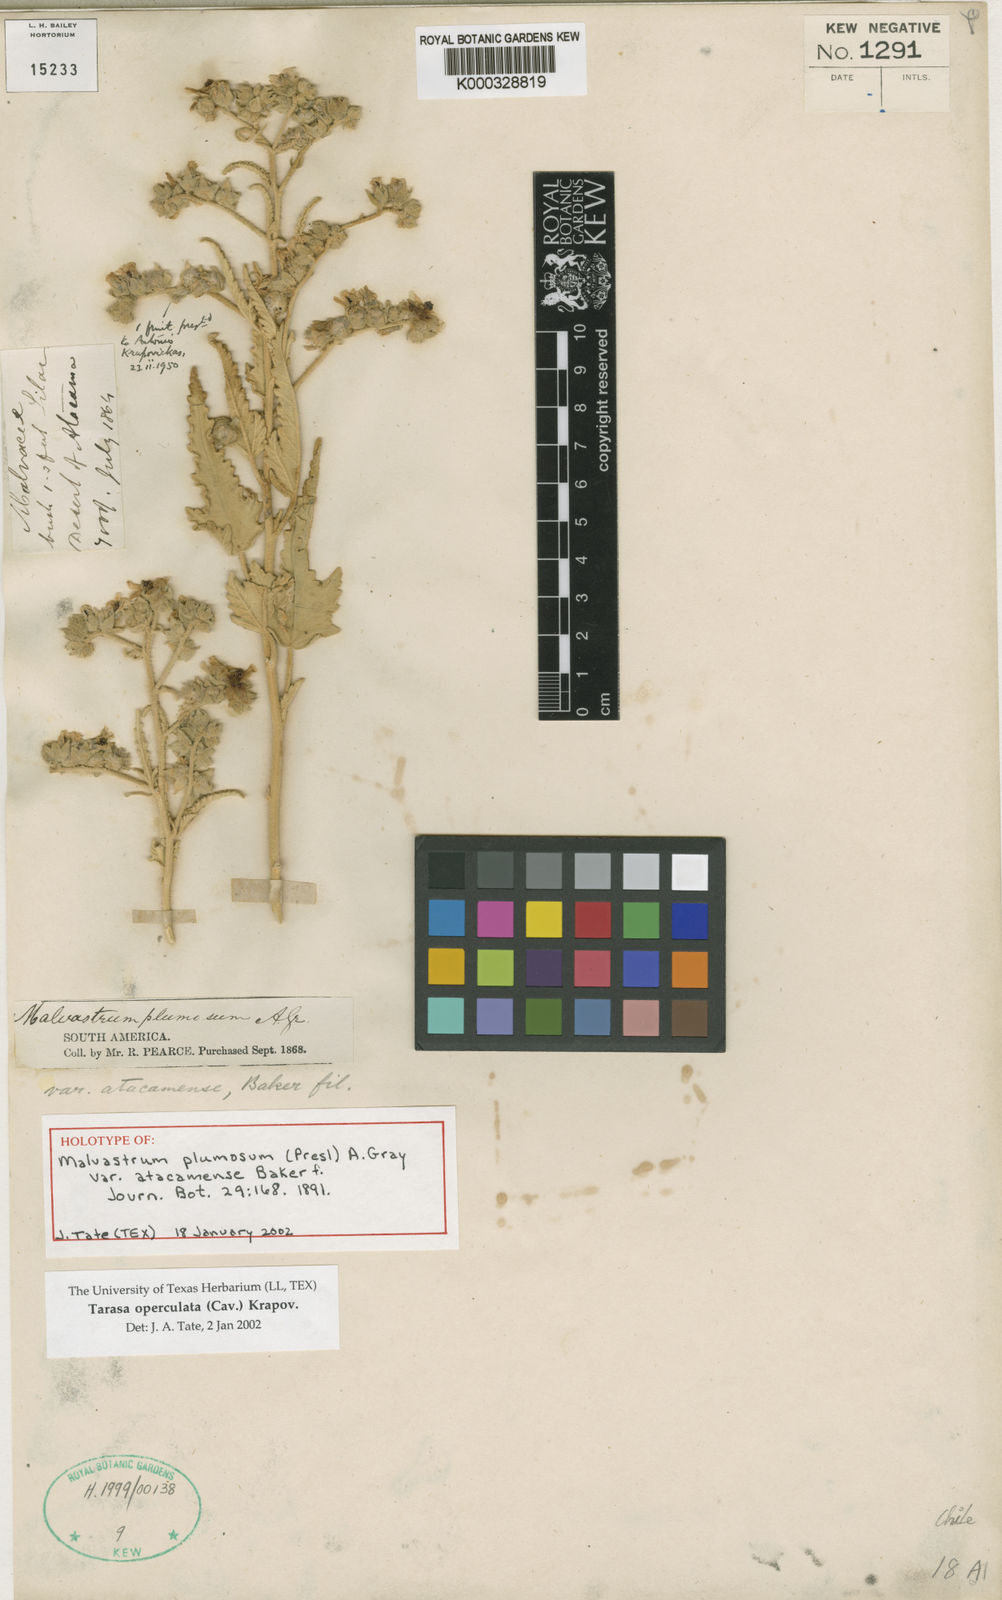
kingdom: Plantae
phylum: Tracheophyta
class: Magnoliopsida
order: Malvales
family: Malvaceae
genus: Tarasa
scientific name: Tarasa operculata
